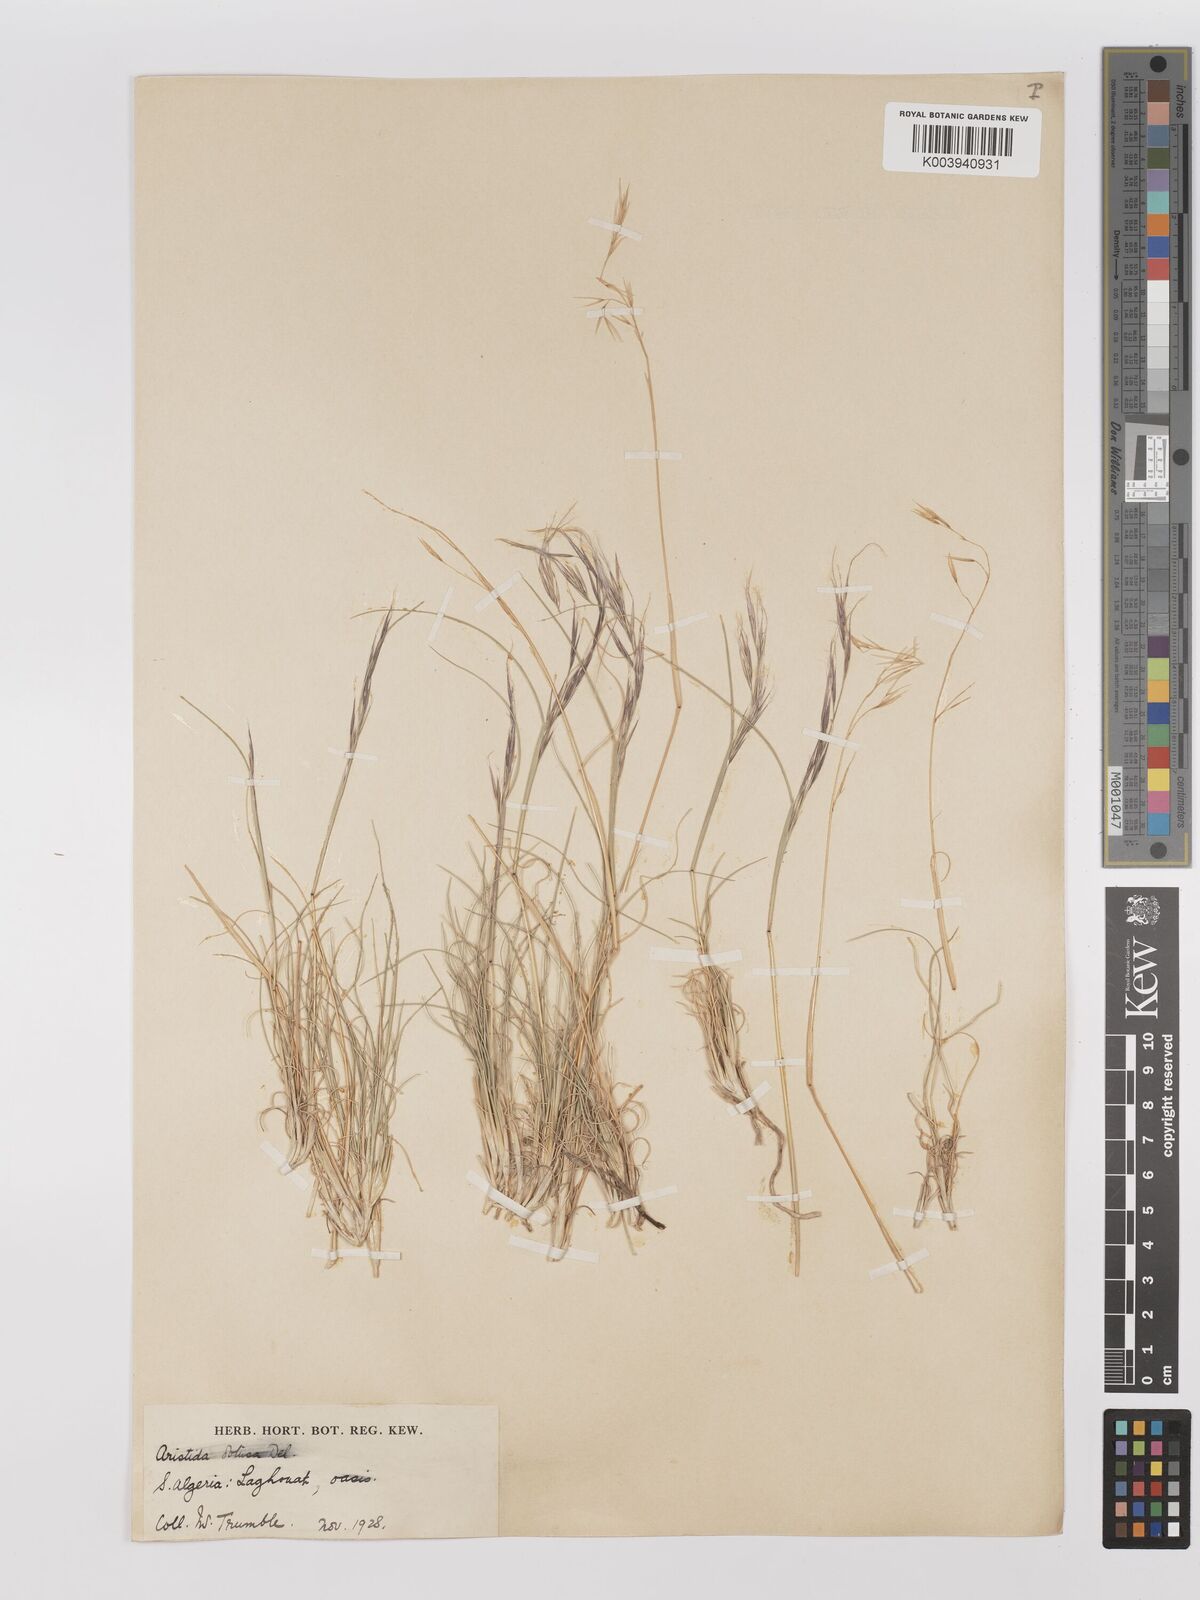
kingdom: Plantae
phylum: Tracheophyta
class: Liliopsida
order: Poales
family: Poaceae
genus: Stipagrostis
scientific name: Stipagrostis obtusa
